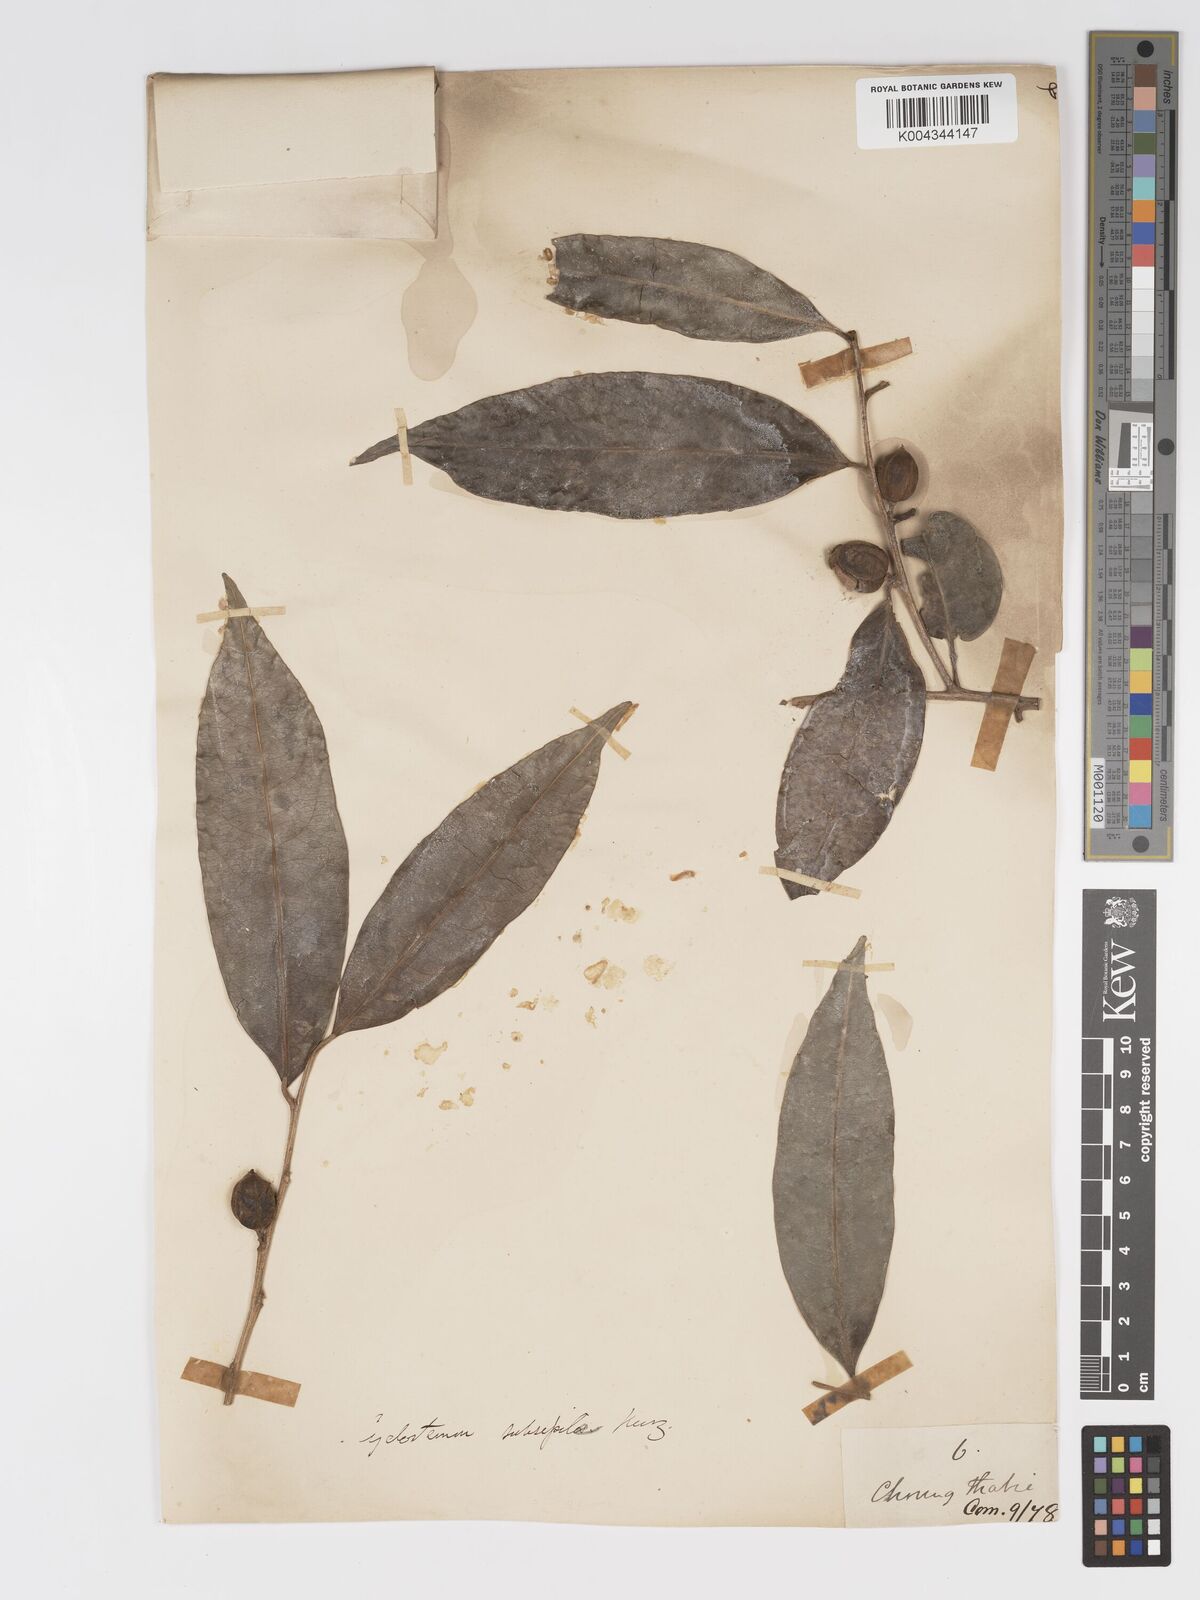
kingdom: Plantae
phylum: Tracheophyta
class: Magnoliopsida
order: Malpighiales
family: Putranjivaceae
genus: Drypetes
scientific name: Drypetes subsessilis
